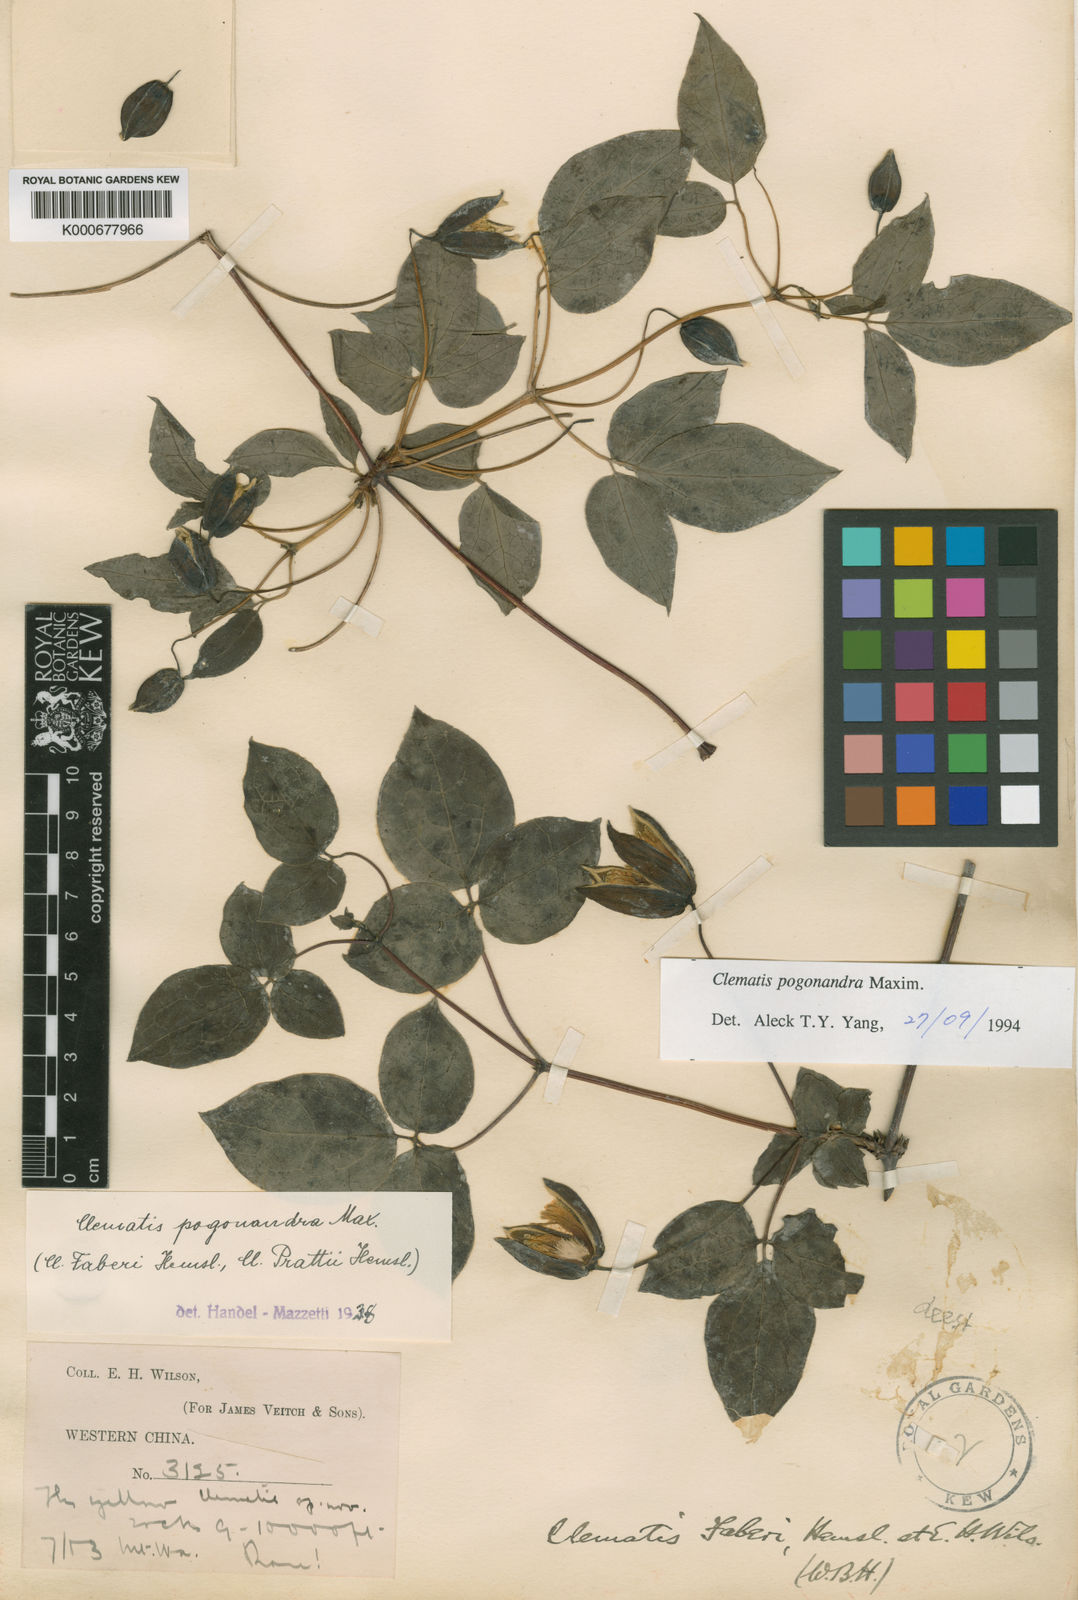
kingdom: Plantae
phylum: Tracheophyta
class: Magnoliopsida
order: Ranunculales
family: Ranunculaceae
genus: Clematis
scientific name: Clematis pogonandra
